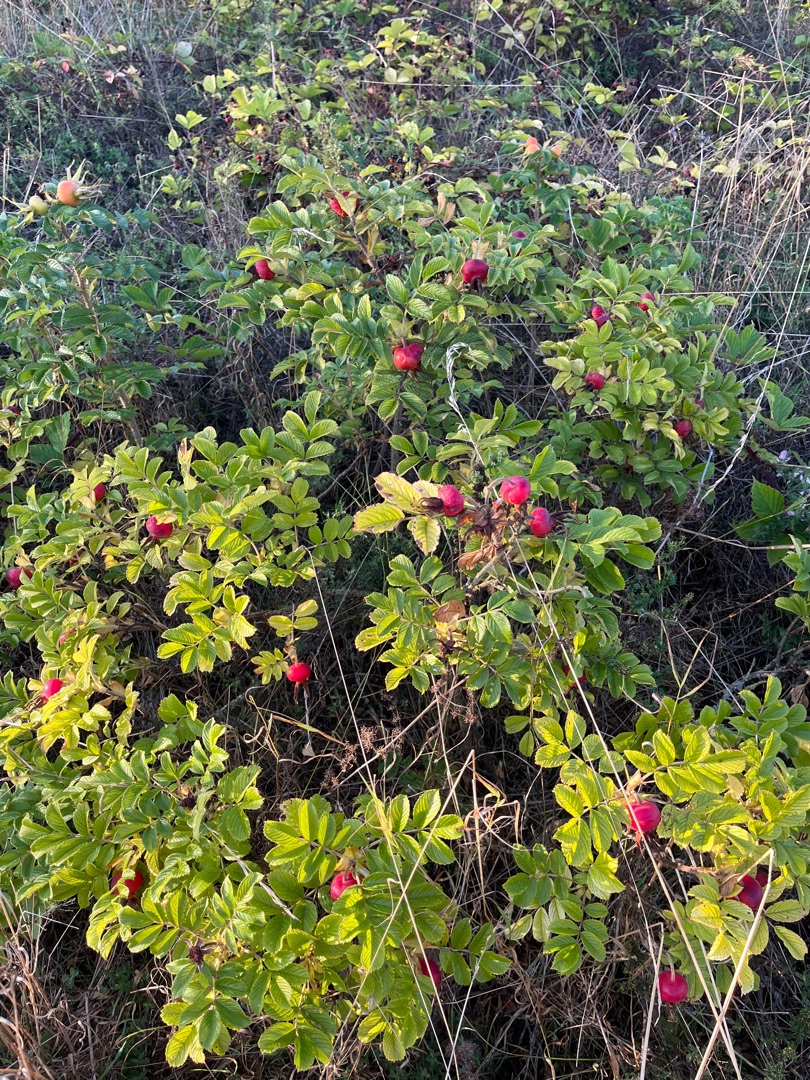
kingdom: Plantae
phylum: Tracheophyta
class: Magnoliopsida
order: Rosales
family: Rosaceae
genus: Rosa
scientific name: Rosa rugosa
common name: Rynket rose
